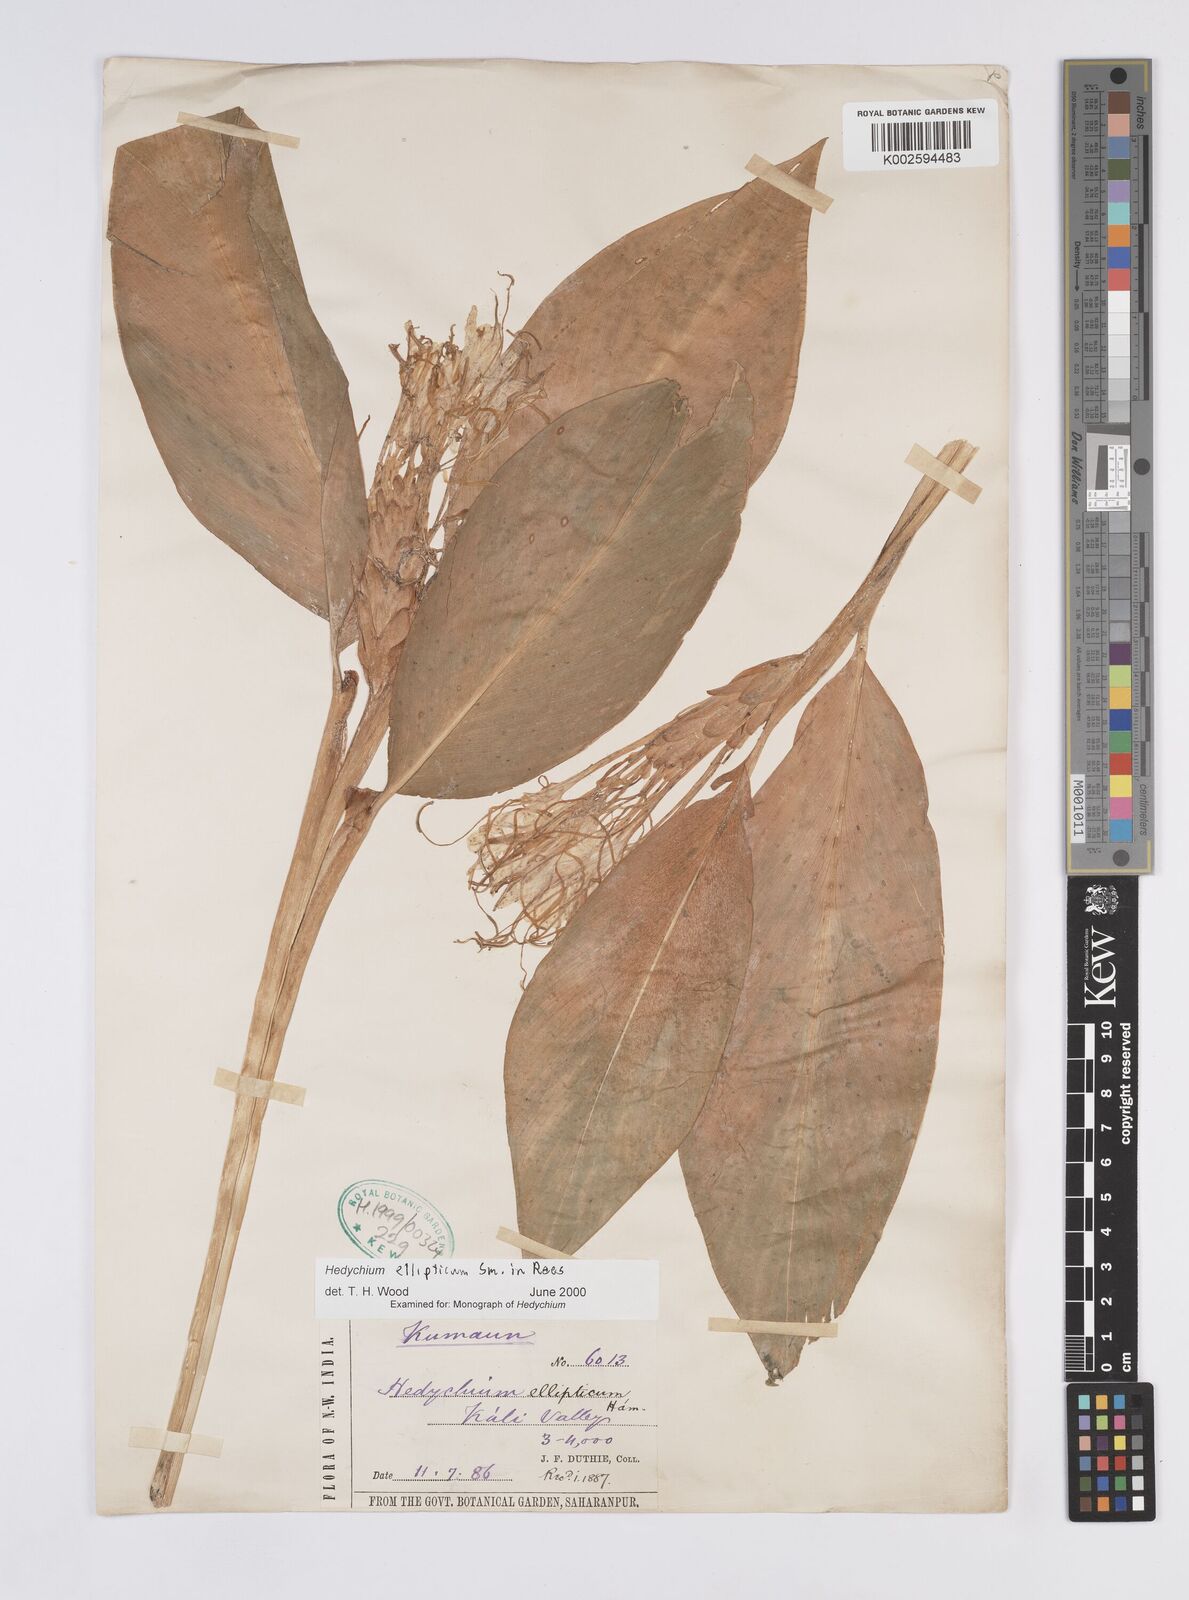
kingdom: Plantae
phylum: Tracheophyta
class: Liliopsida
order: Zingiberales
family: Zingiberaceae
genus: Hedychium
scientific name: Hedychium ellipticum
